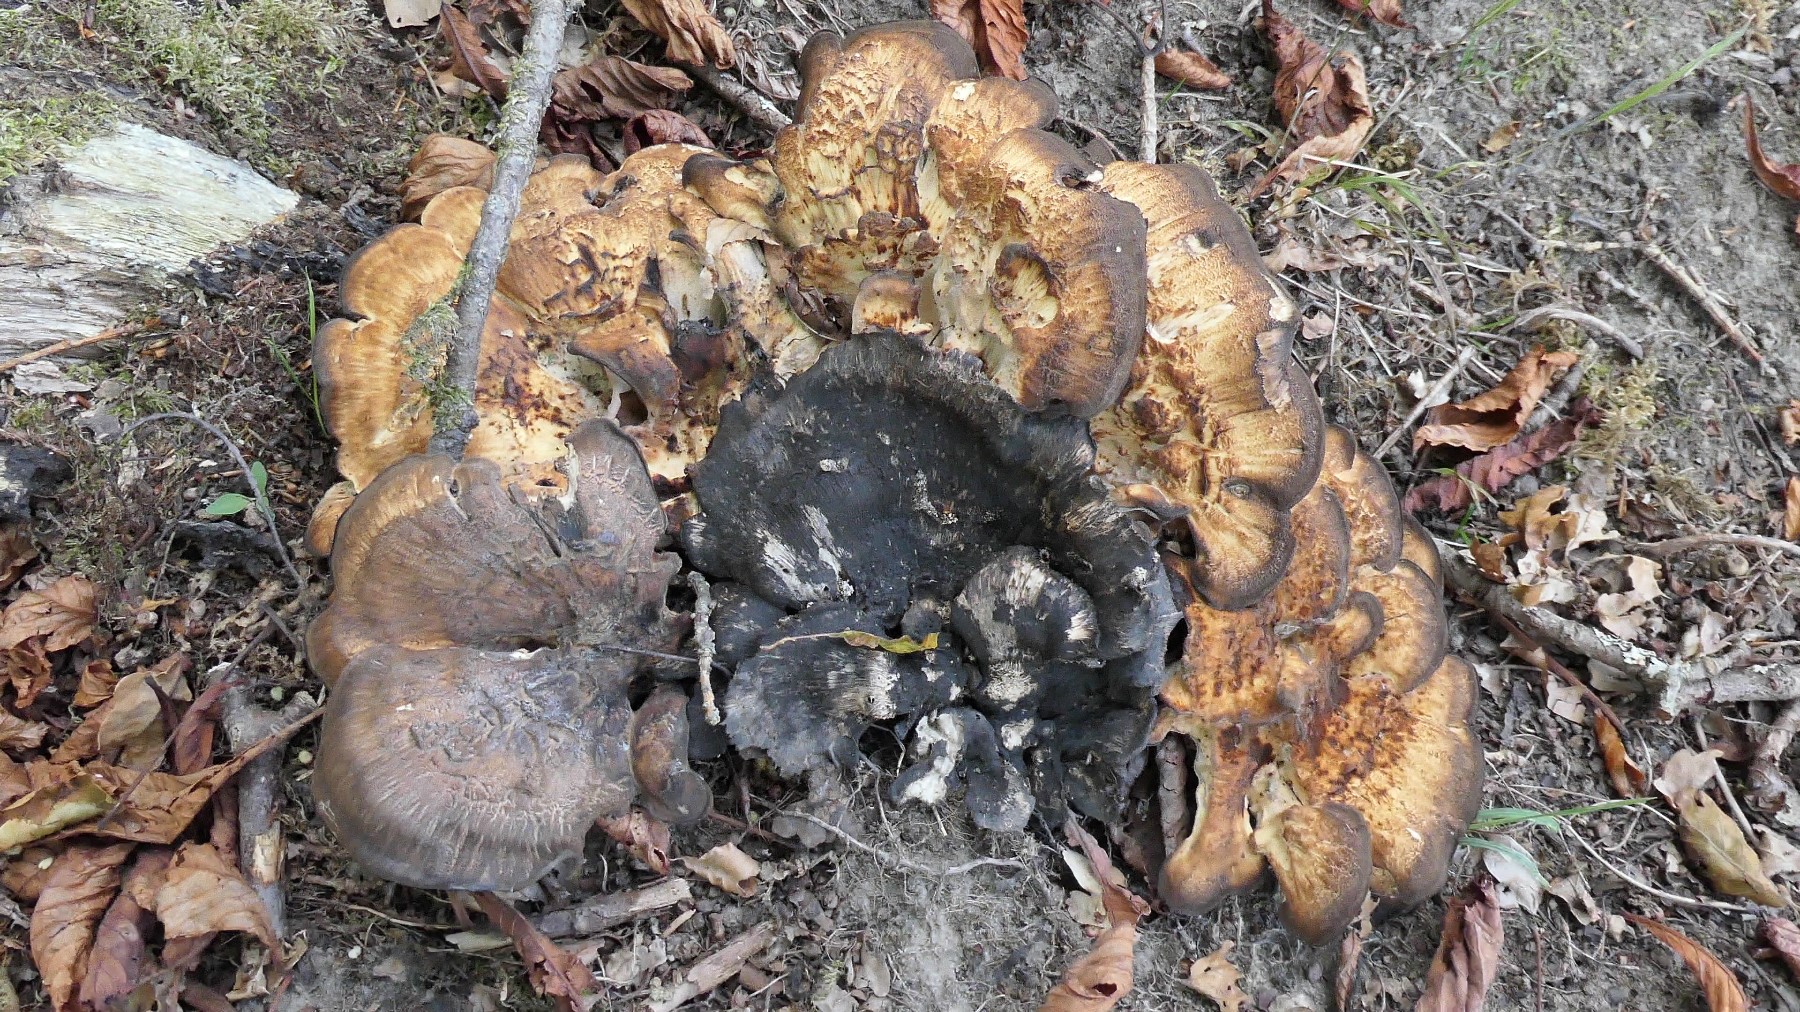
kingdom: Fungi
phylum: Basidiomycota
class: Agaricomycetes
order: Polyporales
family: Meripilaceae
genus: Meripilus
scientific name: Meripilus giganteus
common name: kæmpeporesvamp
